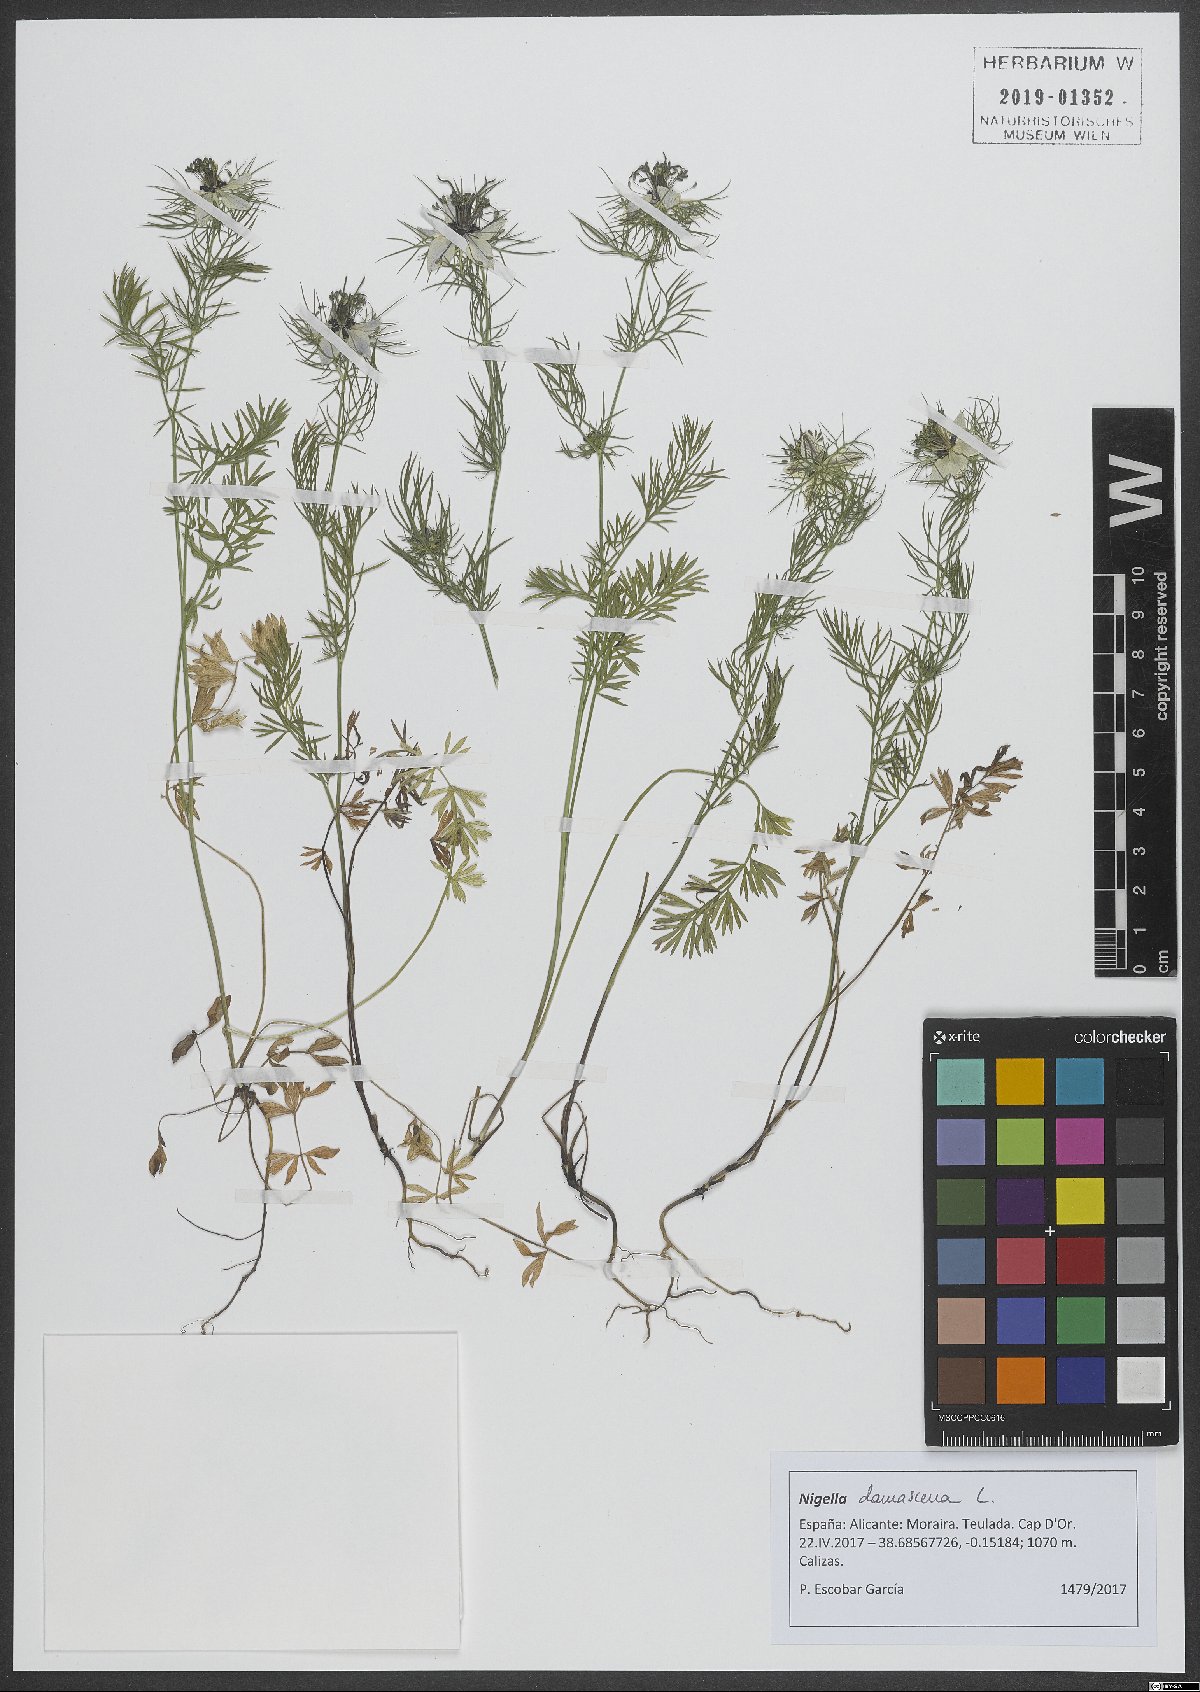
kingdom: Plantae
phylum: Tracheophyta
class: Magnoliopsida
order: Ranunculales
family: Ranunculaceae
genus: Nigella
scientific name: Nigella damascena
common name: Love-in-a-mist
